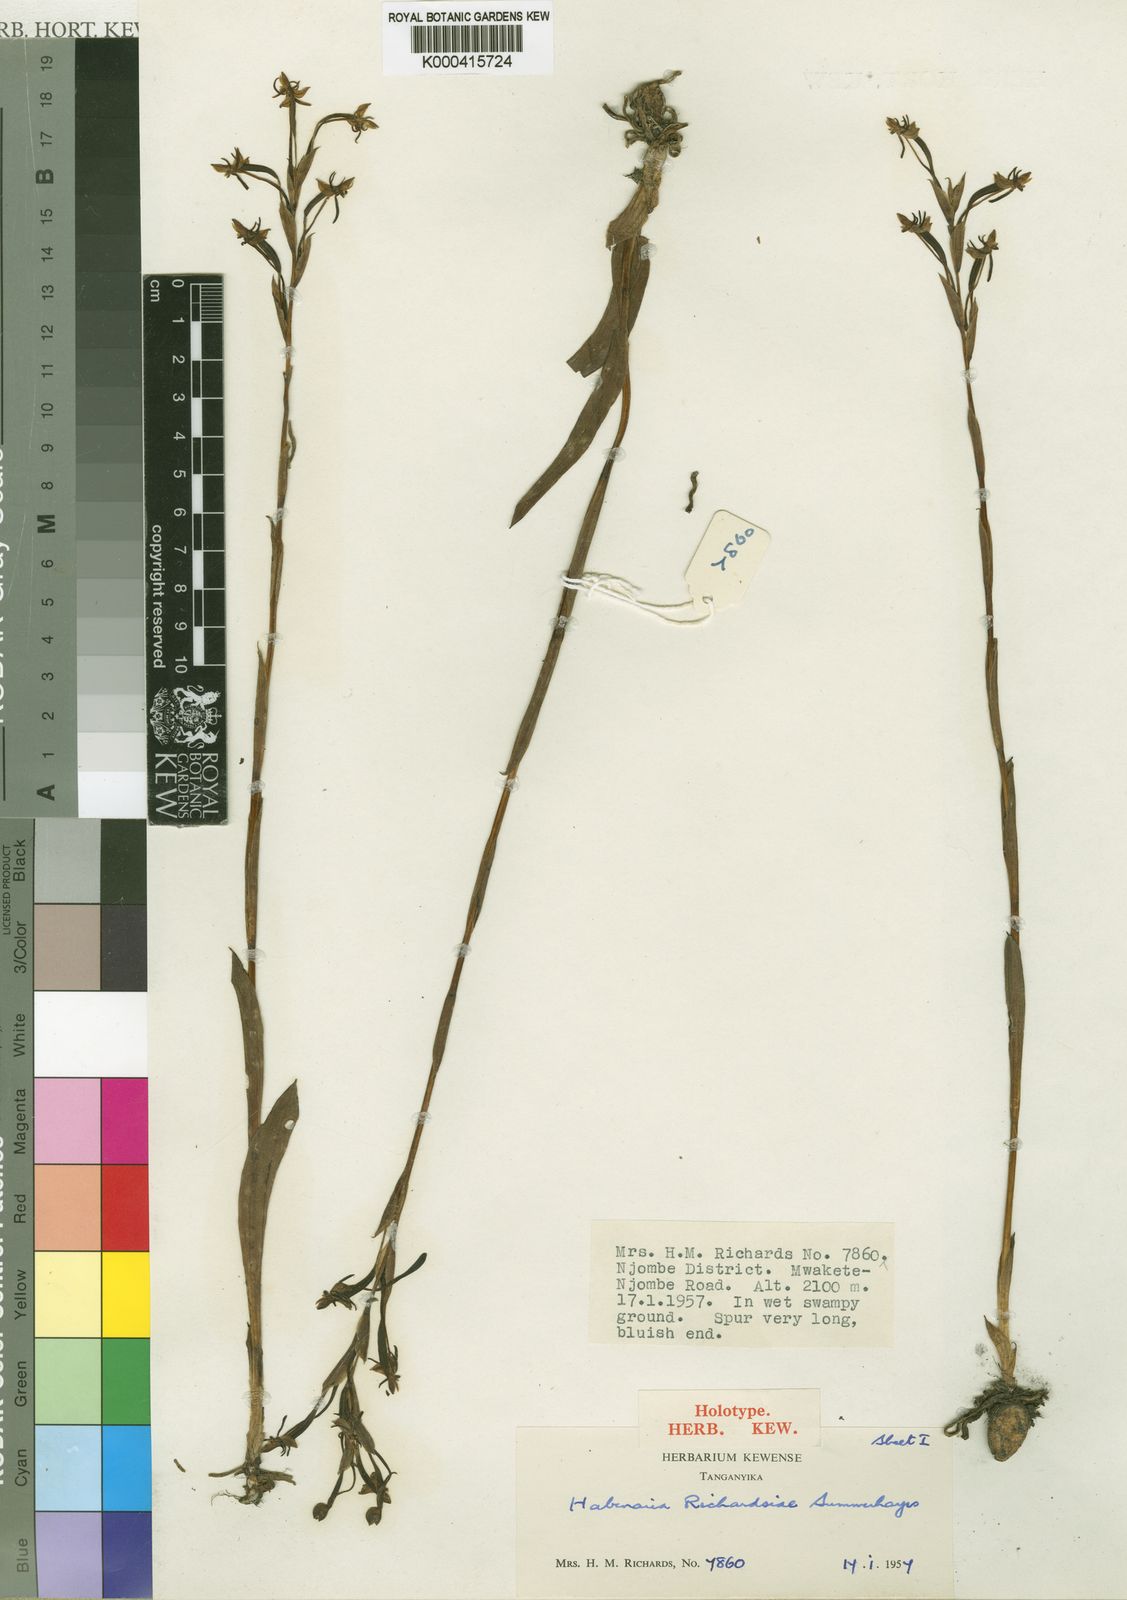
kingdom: Plantae
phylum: Tracheophyta
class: Liliopsida
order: Asparagales
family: Orchidaceae
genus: Habenaria
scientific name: Habenaria richardsiae
